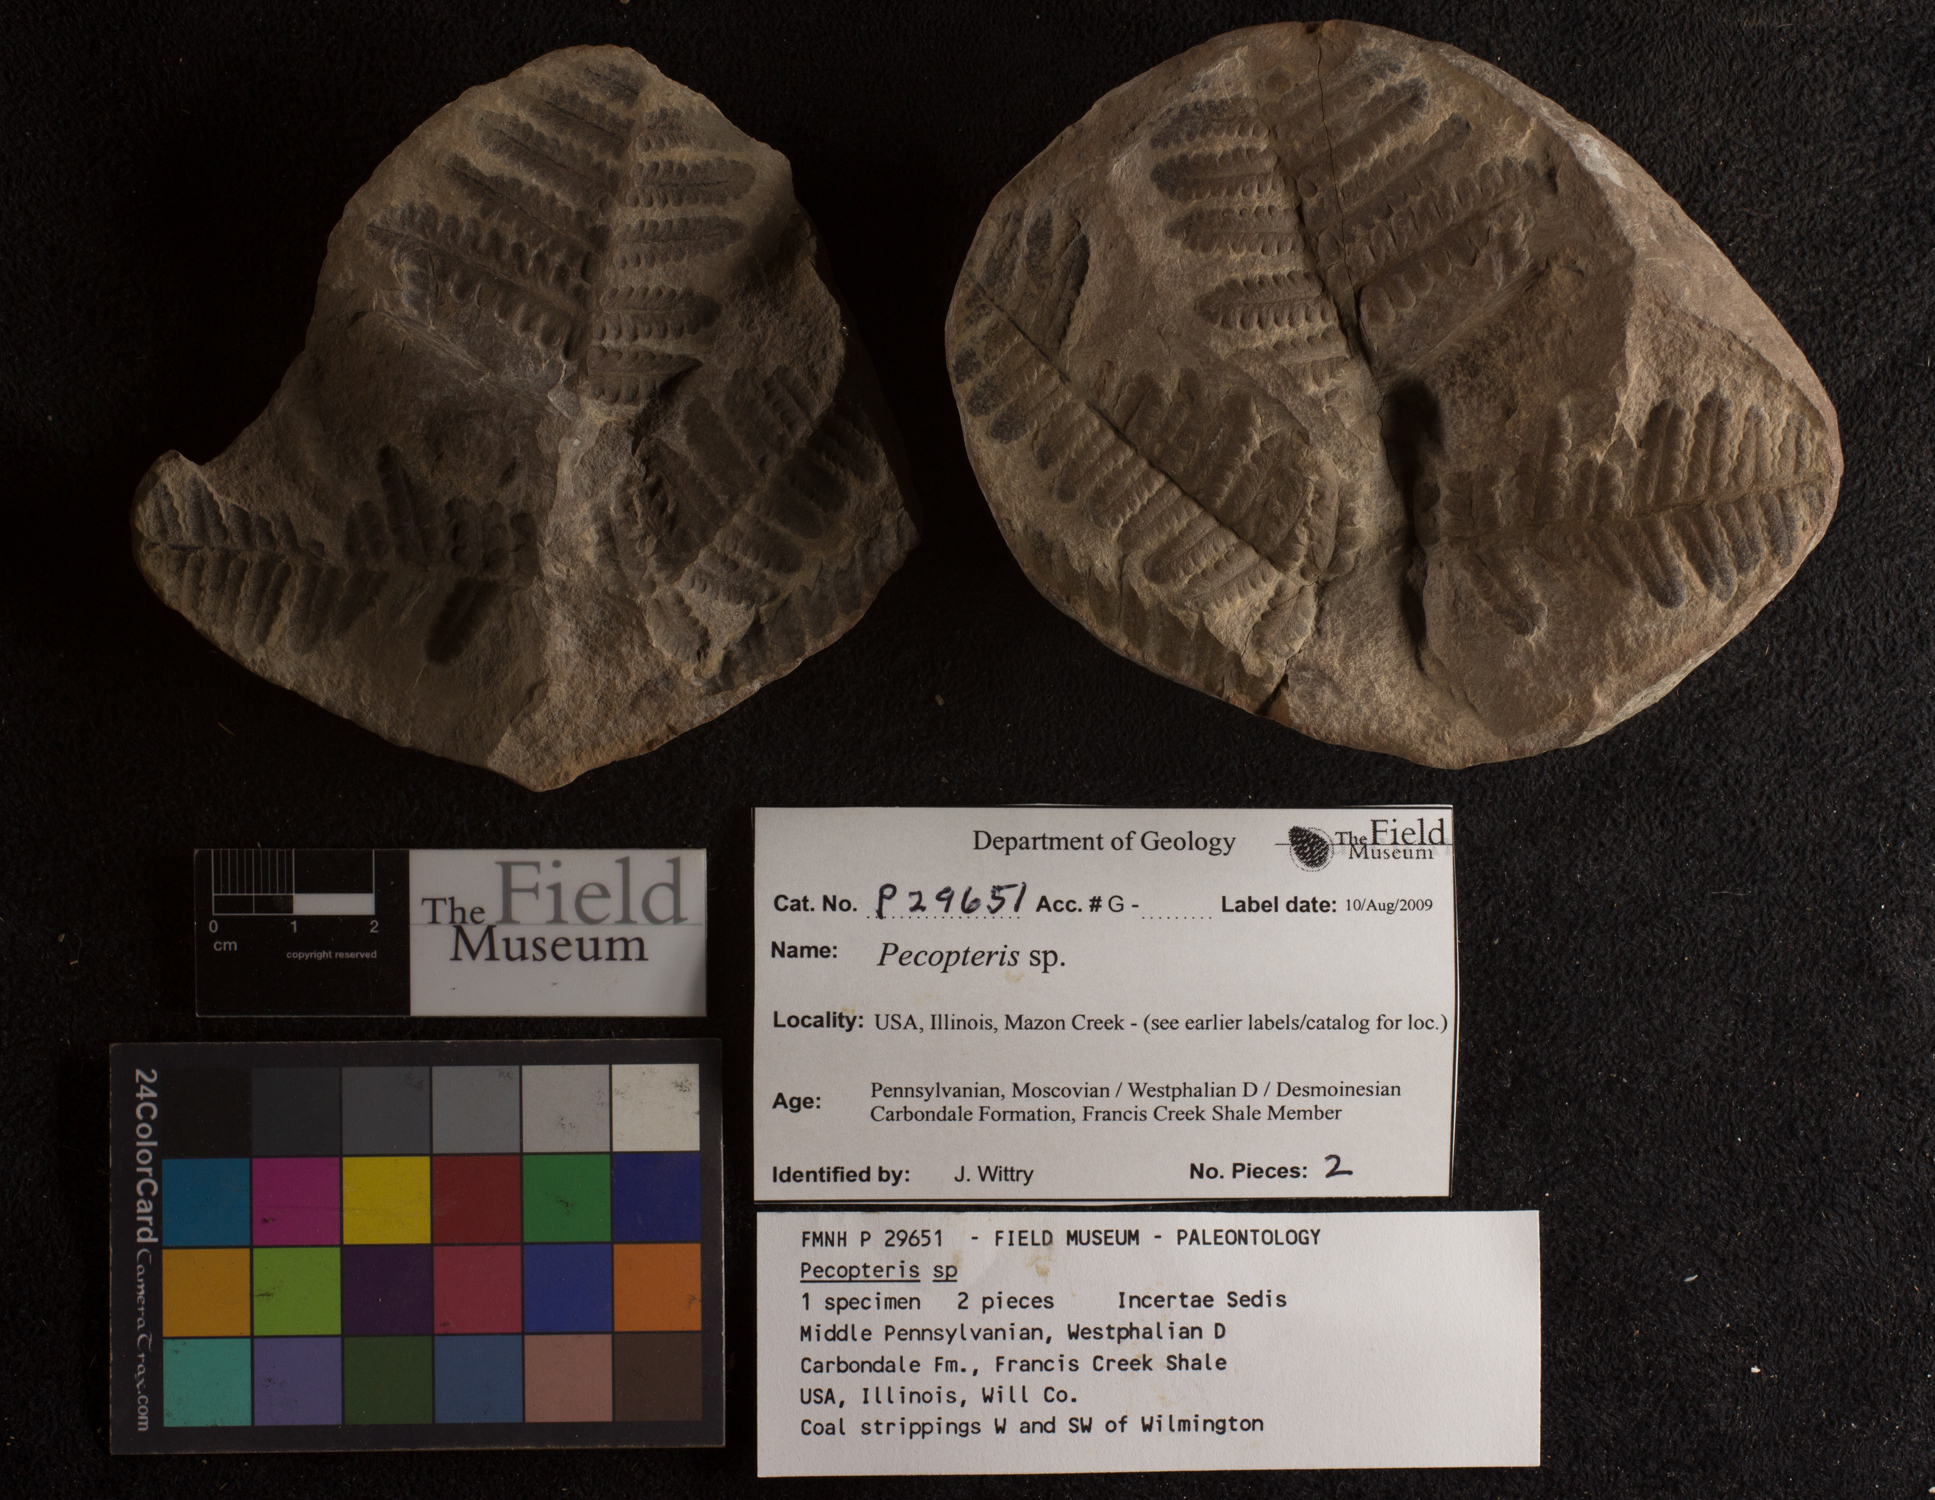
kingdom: Plantae
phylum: Tracheophyta
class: Polypodiopsida
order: Marattiales
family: Asterothecaceae
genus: Pecopteris
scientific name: Pecopteris
